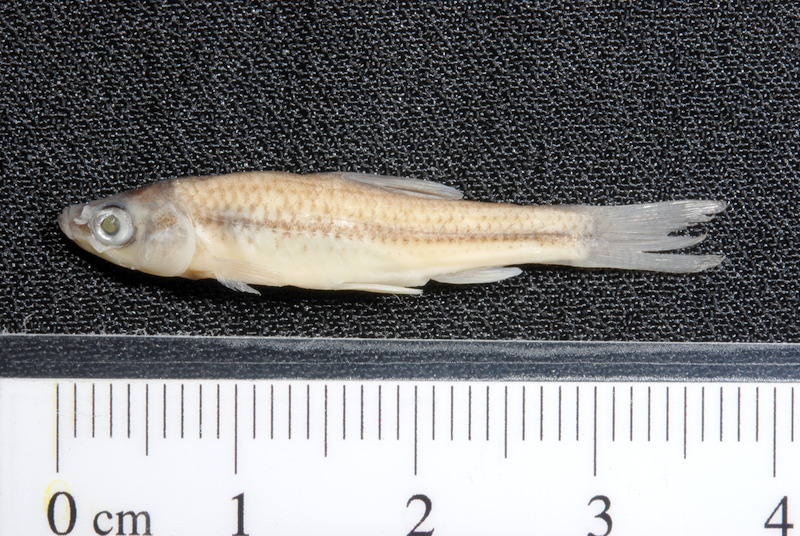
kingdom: Animalia
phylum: Chordata
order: Cypriniformes
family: Cyprinidae
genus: Pseudorasbora
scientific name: Pseudorasbora parva
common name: Topmouth gudgeon
